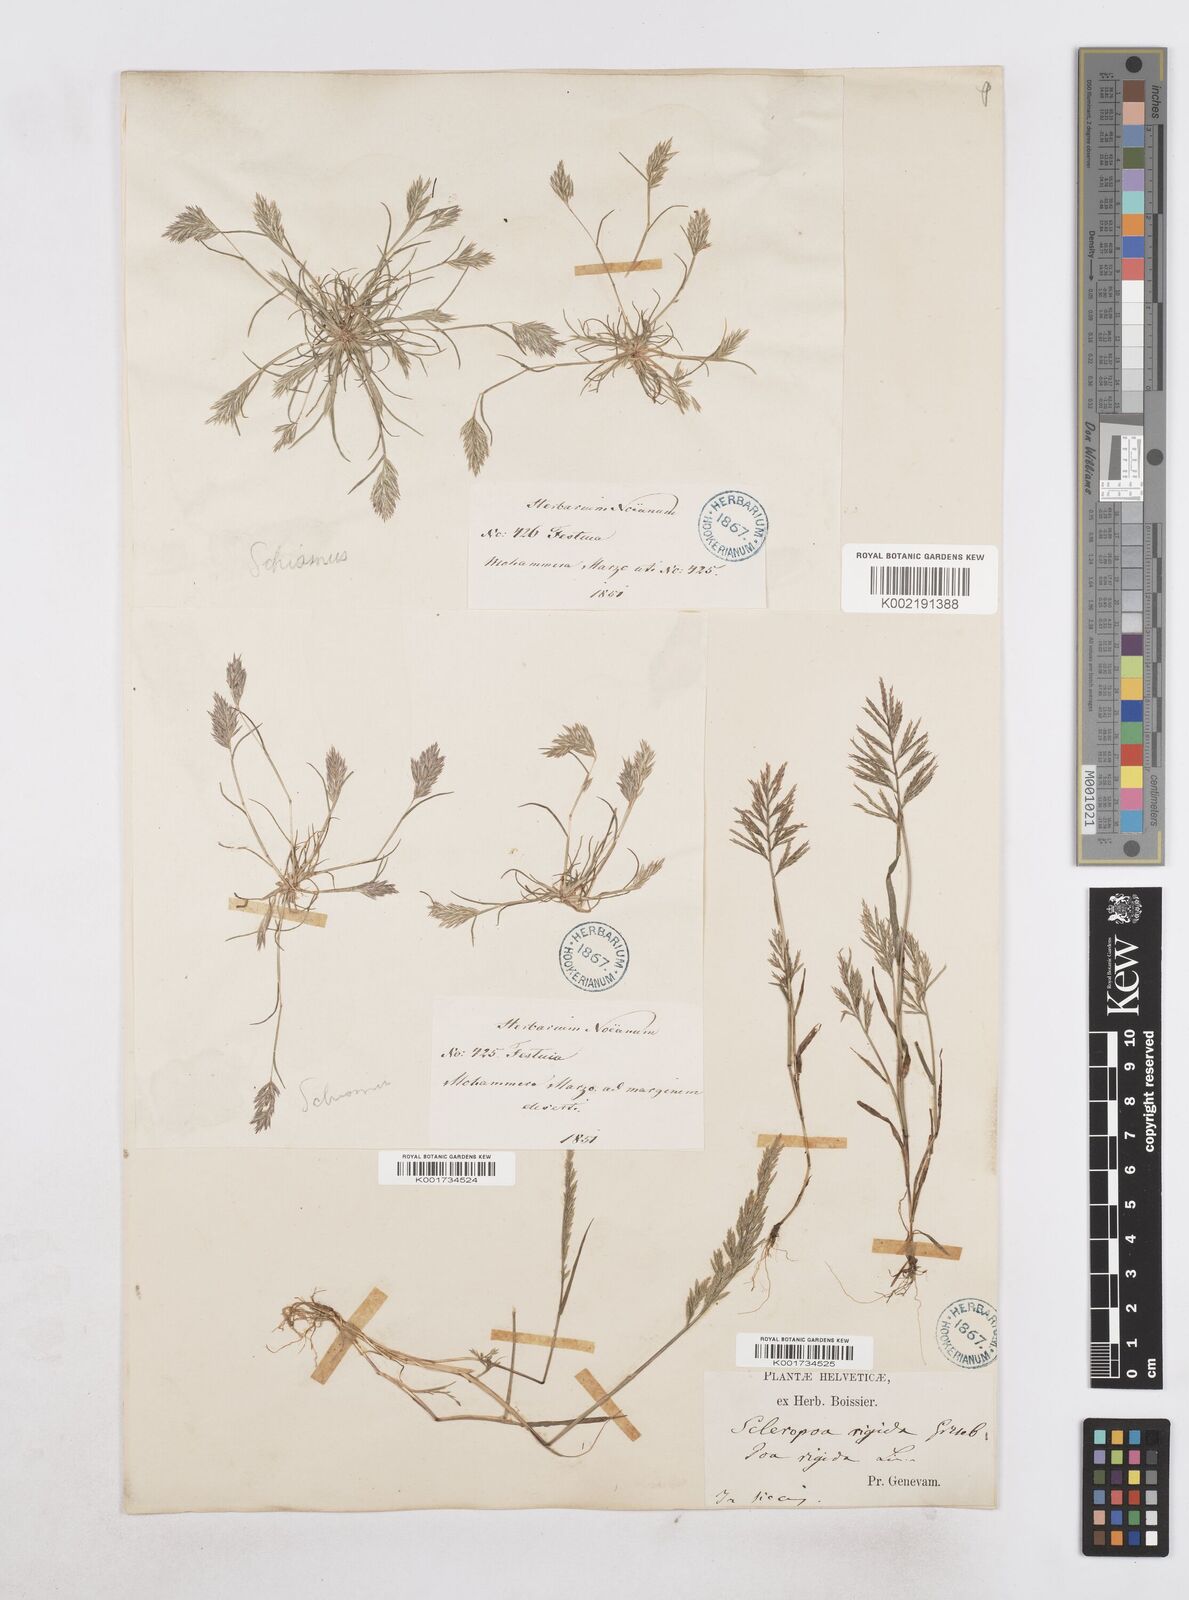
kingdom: Plantae
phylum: Tracheophyta
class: Liliopsida
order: Poales
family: Poaceae
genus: Catapodium
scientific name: Catapodium rigidum
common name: Fern-grass
